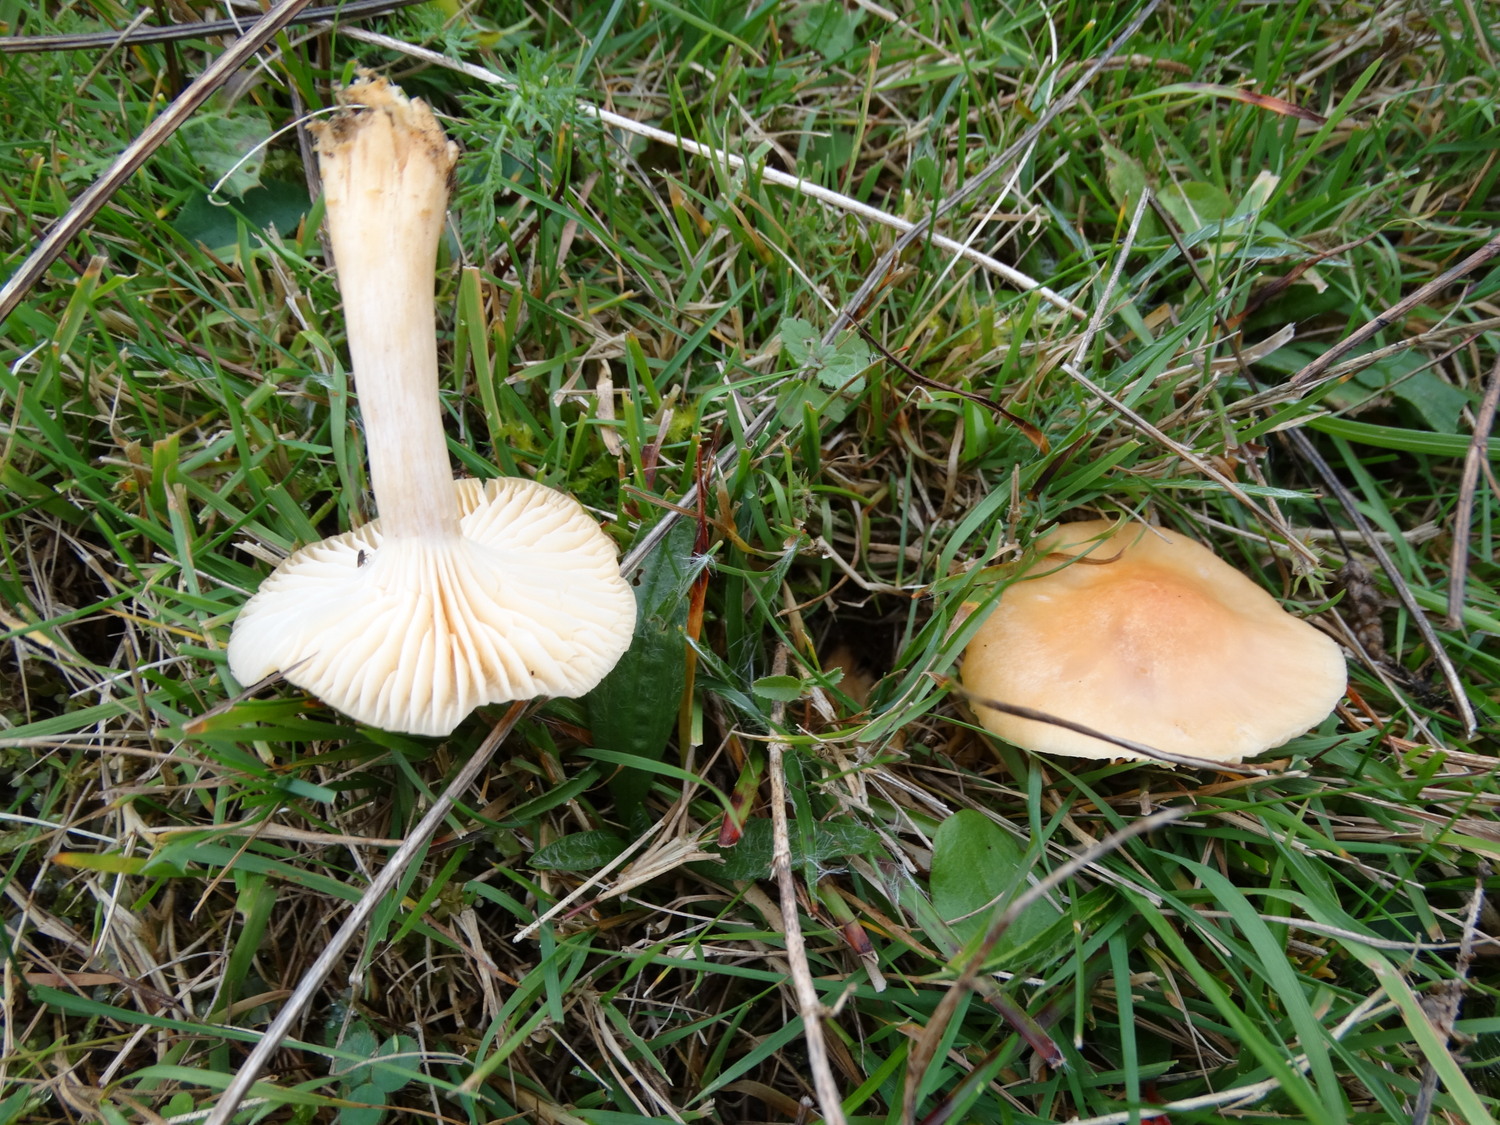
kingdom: Fungi
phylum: Basidiomycota
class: Agaricomycetes
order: Agaricales
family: Hygrophoraceae
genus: Cuphophyllus
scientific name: Cuphophyllus pratensis
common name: eng-vokshat
